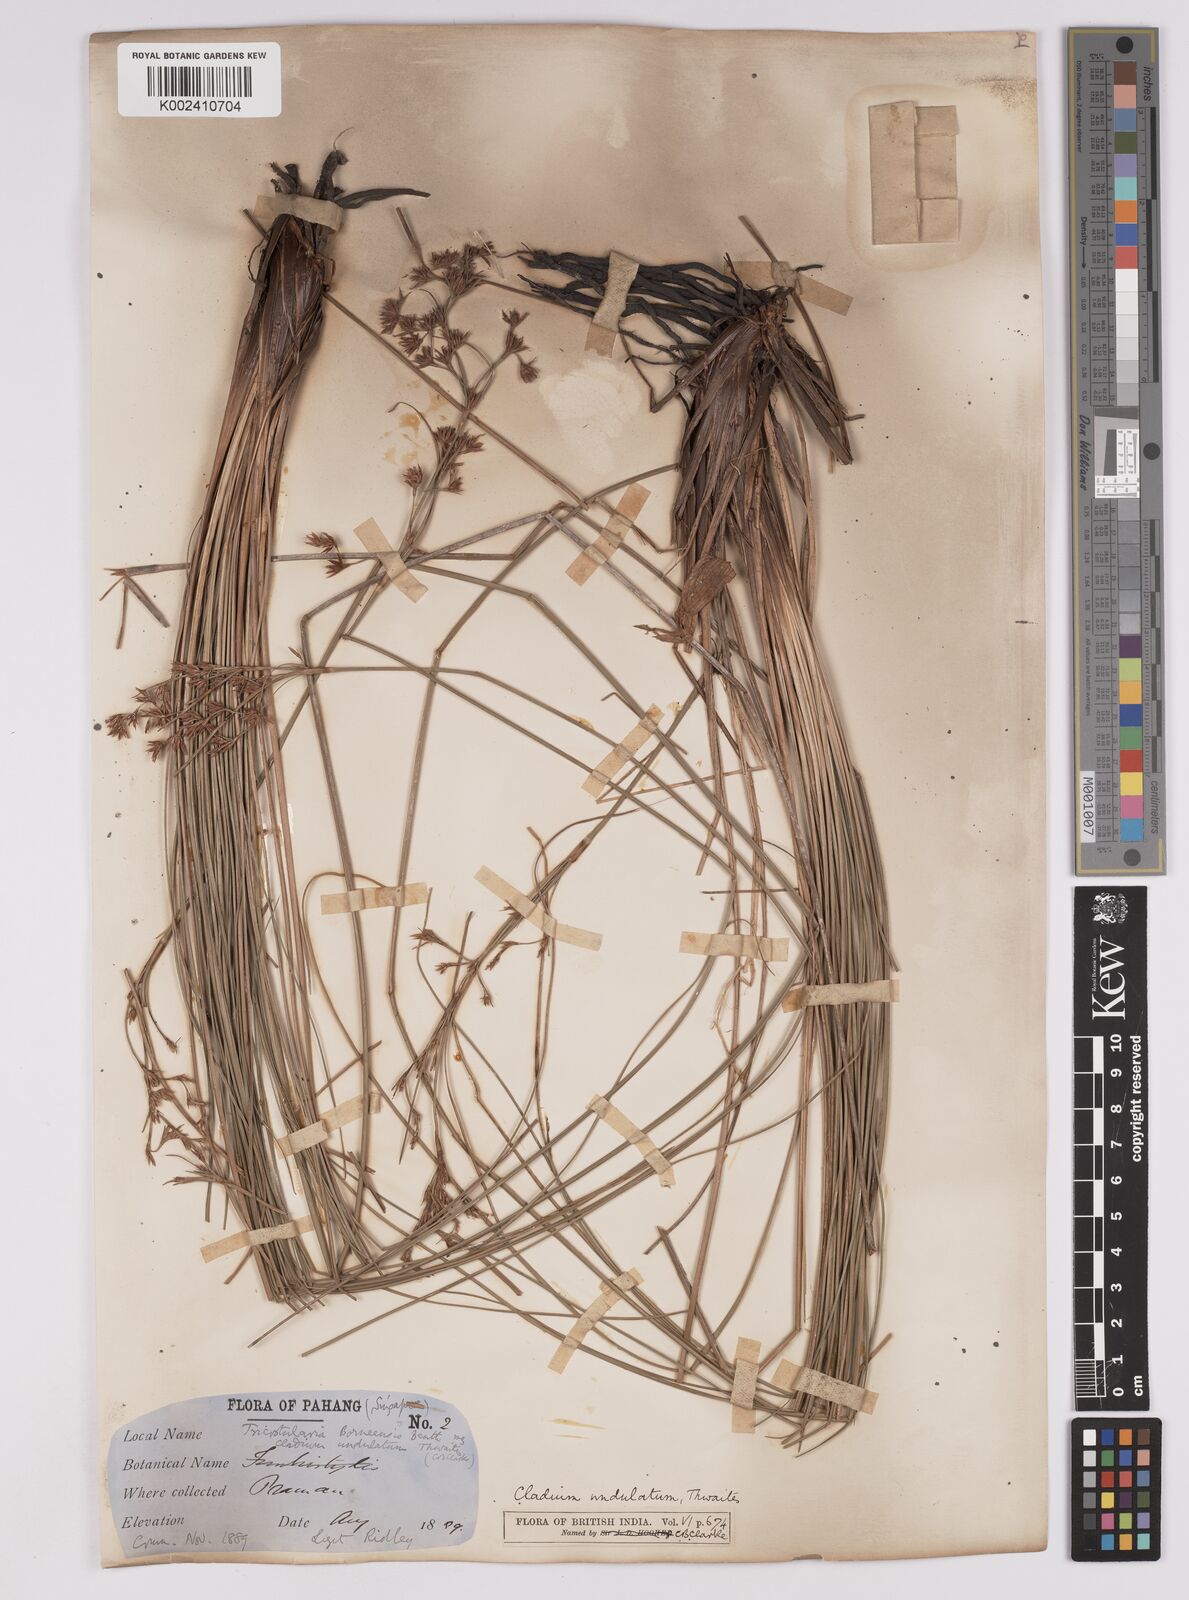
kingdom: Plantae
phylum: Tracheophyta
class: Liliopsida
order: Poales
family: Cyperaceae
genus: Anthelepis
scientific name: Anthelepis undulata
